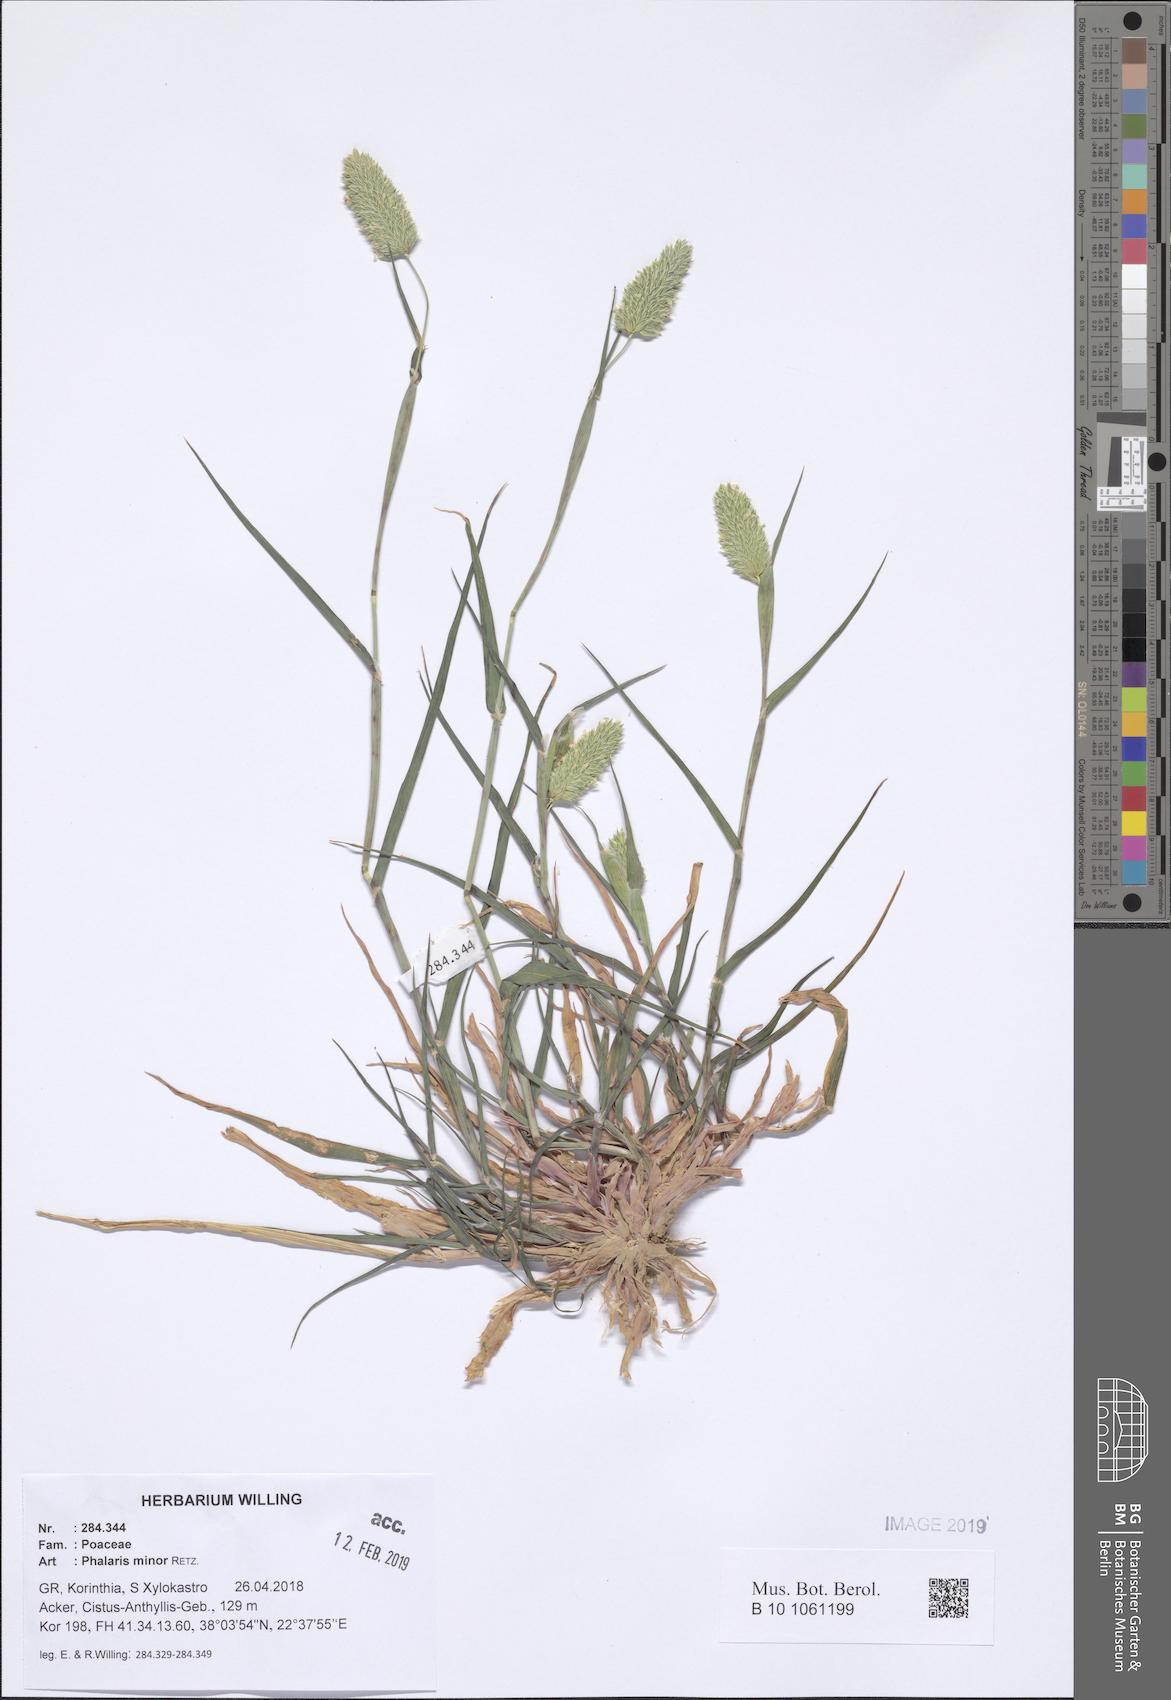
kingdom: Plantae
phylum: Tracheophyta
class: Liliopsida
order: Poales
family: Poaceae
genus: Phalaris
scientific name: Phalaris minor
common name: Littleseed canarygrass
